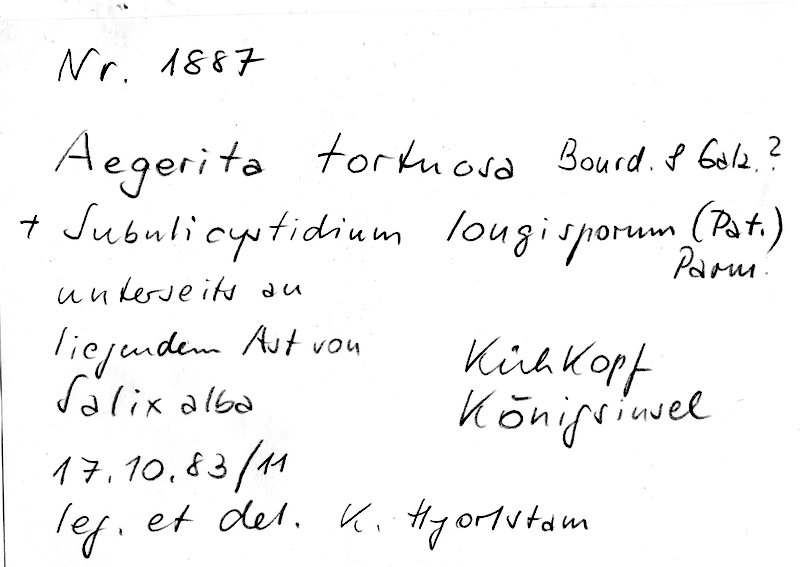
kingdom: Fungi
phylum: Basidiomycota
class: Agaricomycetes
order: Trechisporales
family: Hydnodontaceae
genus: Subulicystidium
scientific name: Subulicystidium longisporum
